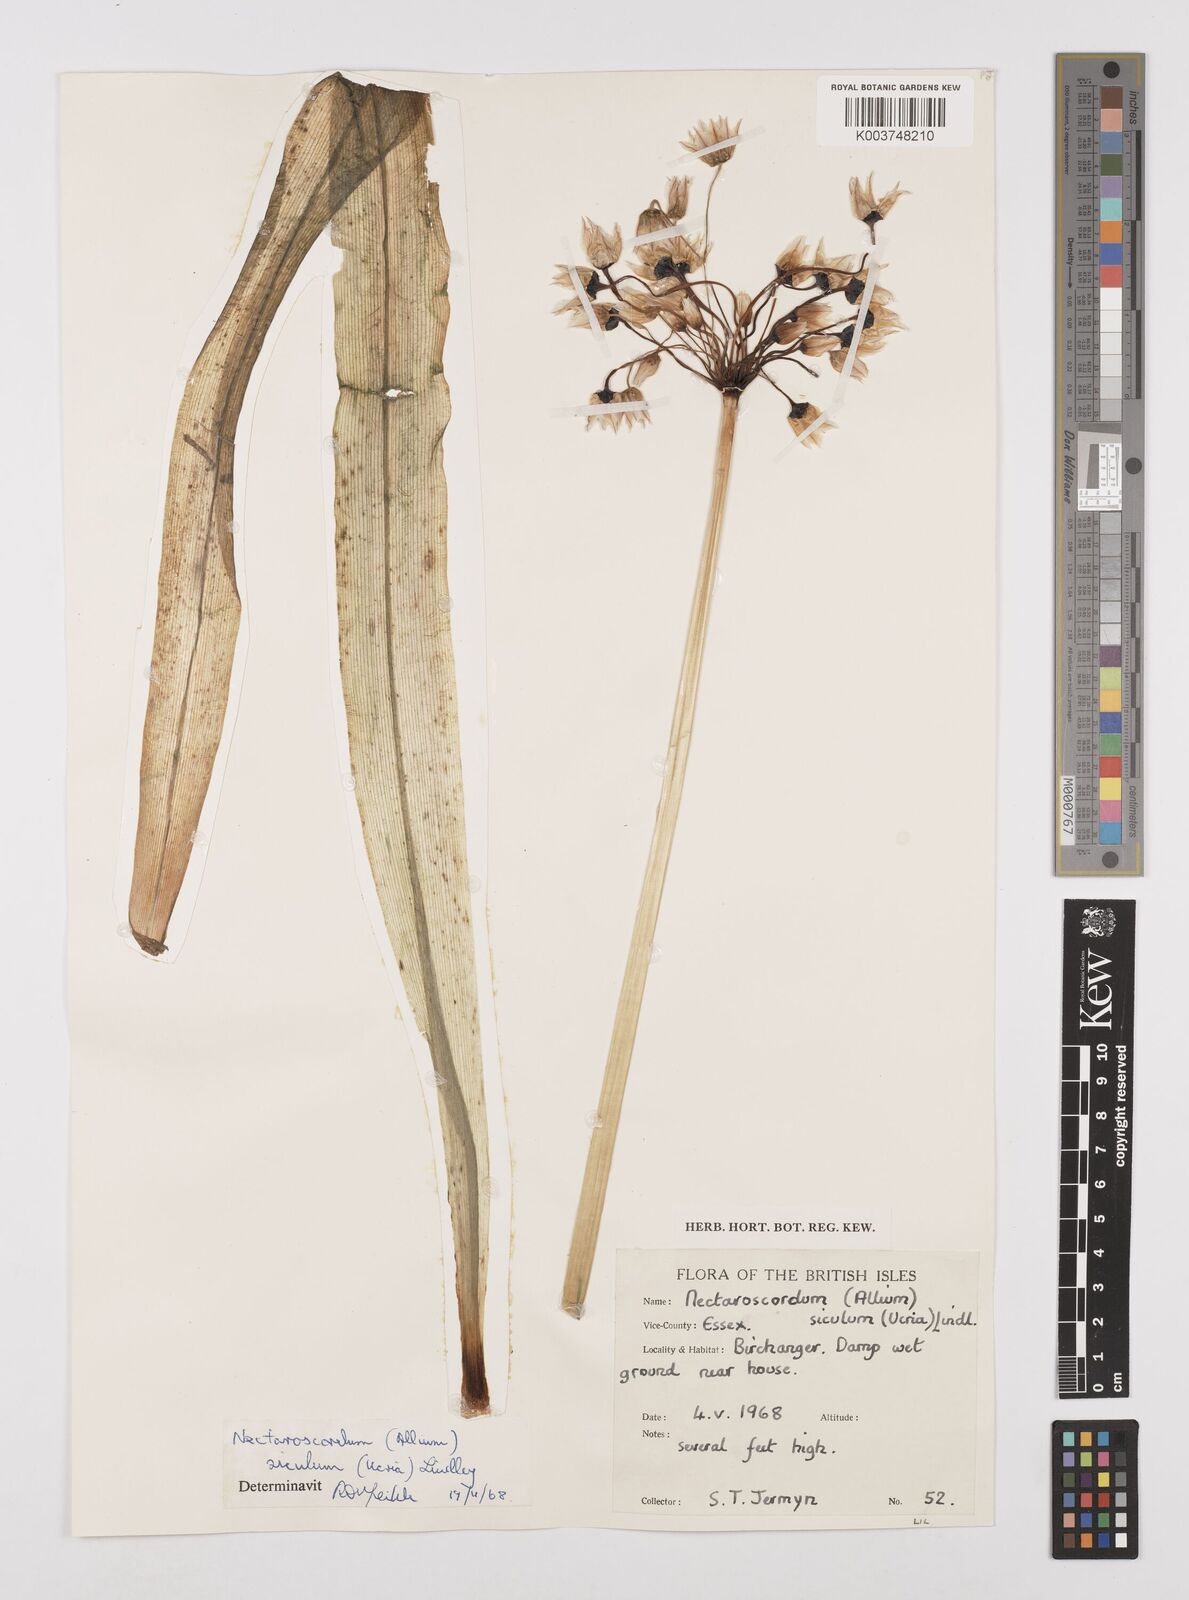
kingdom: Plantae
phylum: Tracheophyta
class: Liliopsida
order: Asparagales
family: Amaryllidaceae
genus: Allium
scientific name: Allium siculum
